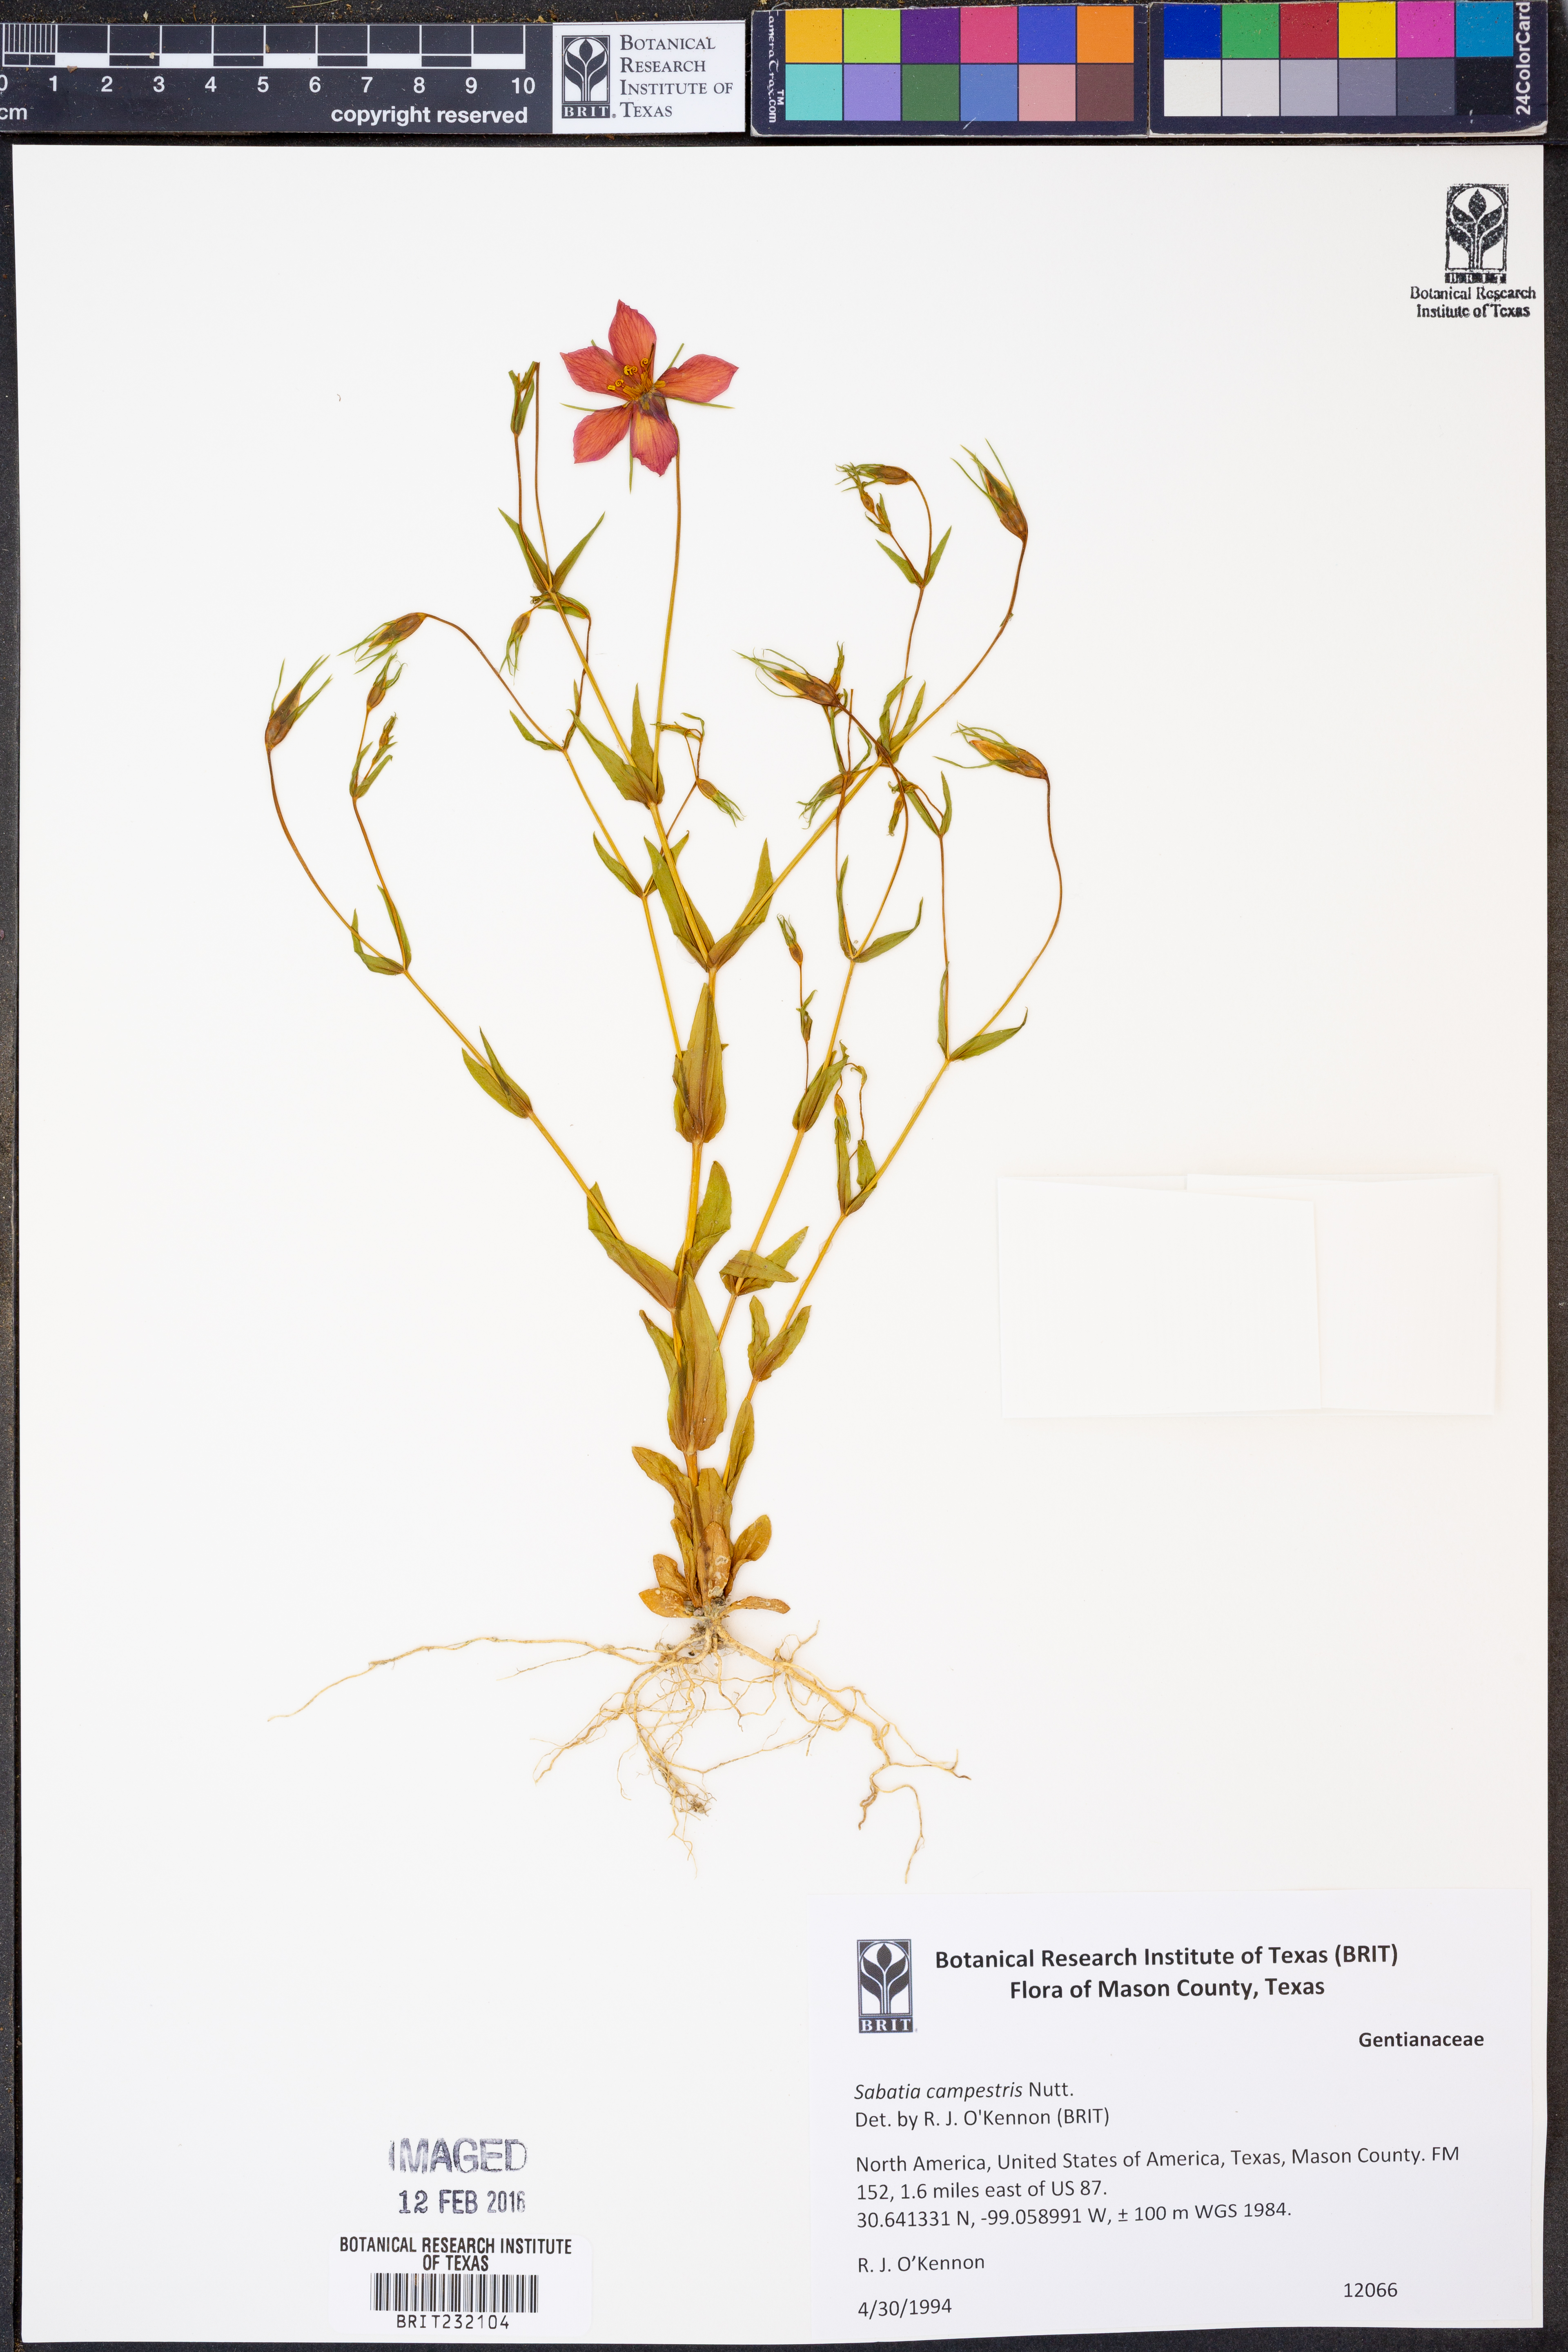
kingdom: Plantae
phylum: Tracheophyta
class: Magnoliopsida
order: Gentianales
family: Gentianaceae
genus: Sabatia
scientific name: Sabatia campestris
